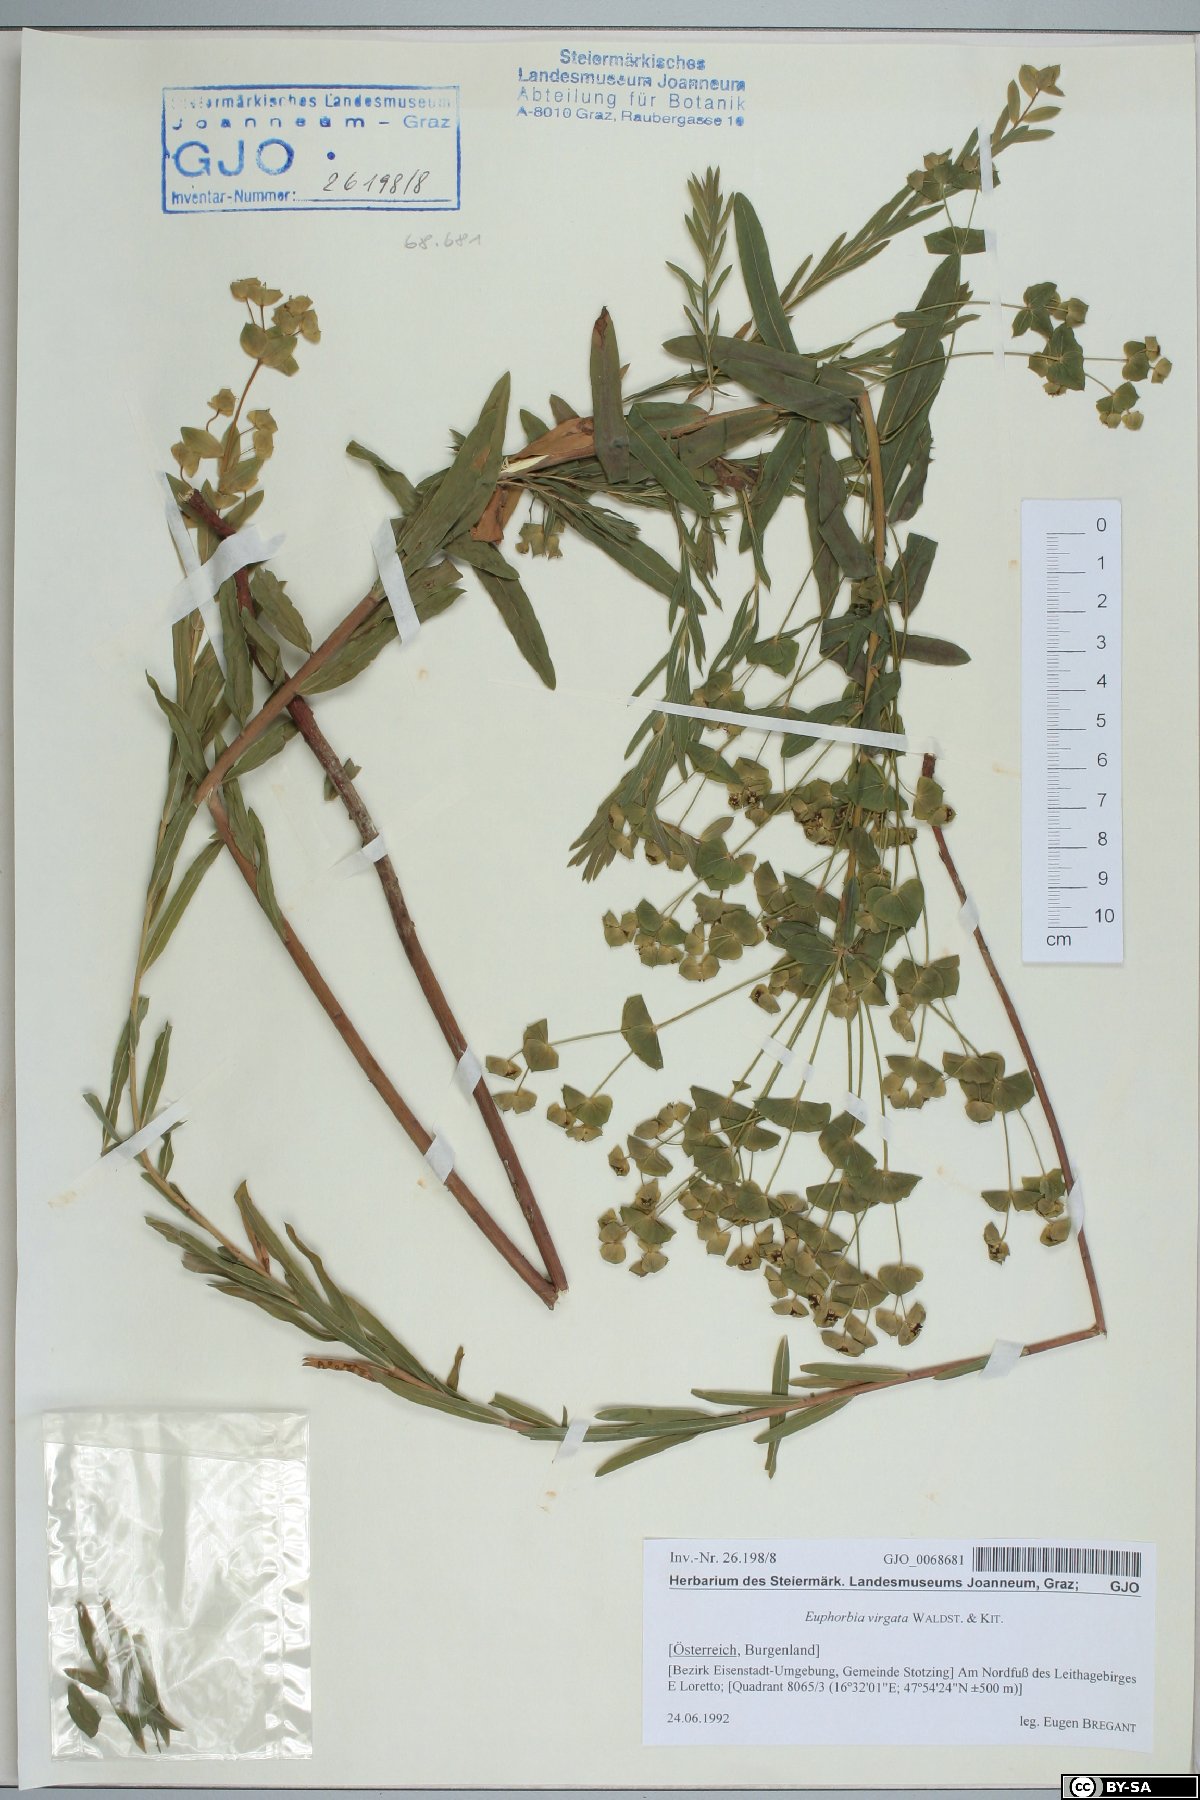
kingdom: Plantae
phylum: Tracheophyta
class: Magnoliopsida
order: Malpighiales
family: Euphorbiaceae
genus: Euphorbia
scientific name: Euphorbia saratoi
